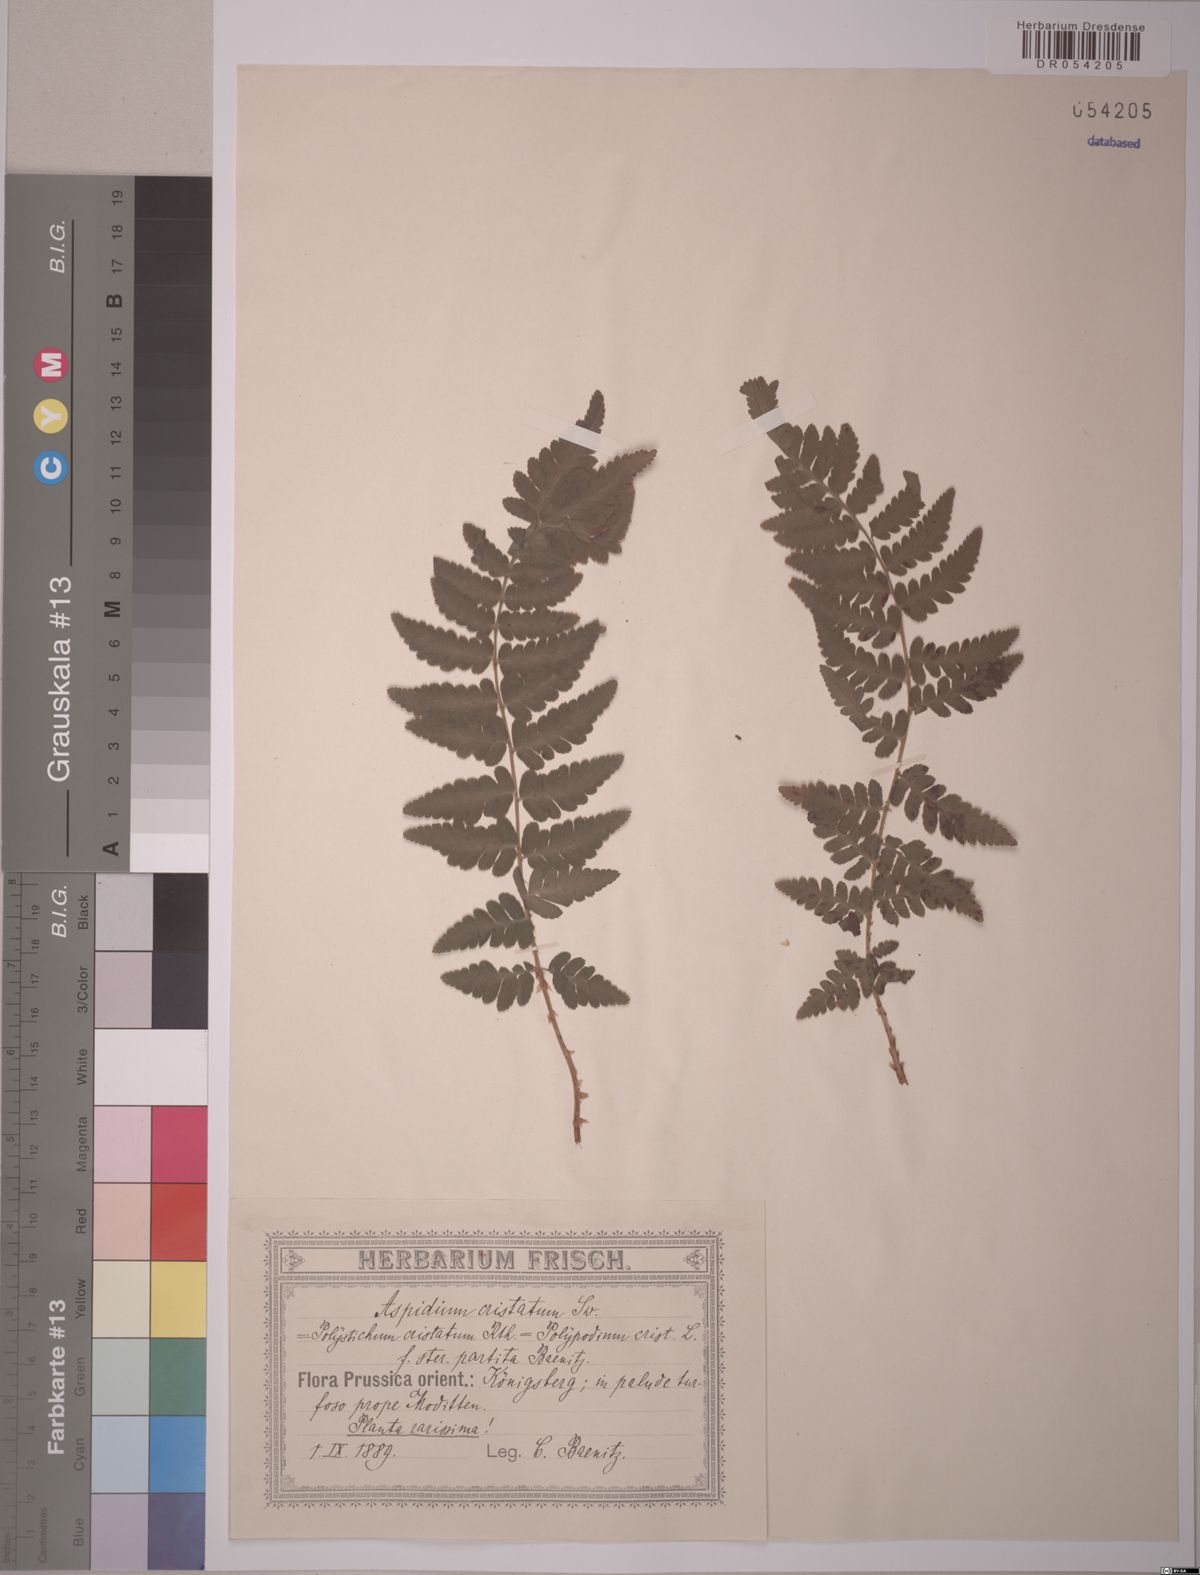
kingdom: Plantae
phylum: Tracheophyta
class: Polypodiopsida
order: Polypodiales
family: Dryopteridaceae
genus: Dryopteris
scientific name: Dryopteris cristata
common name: Crested wood fern
